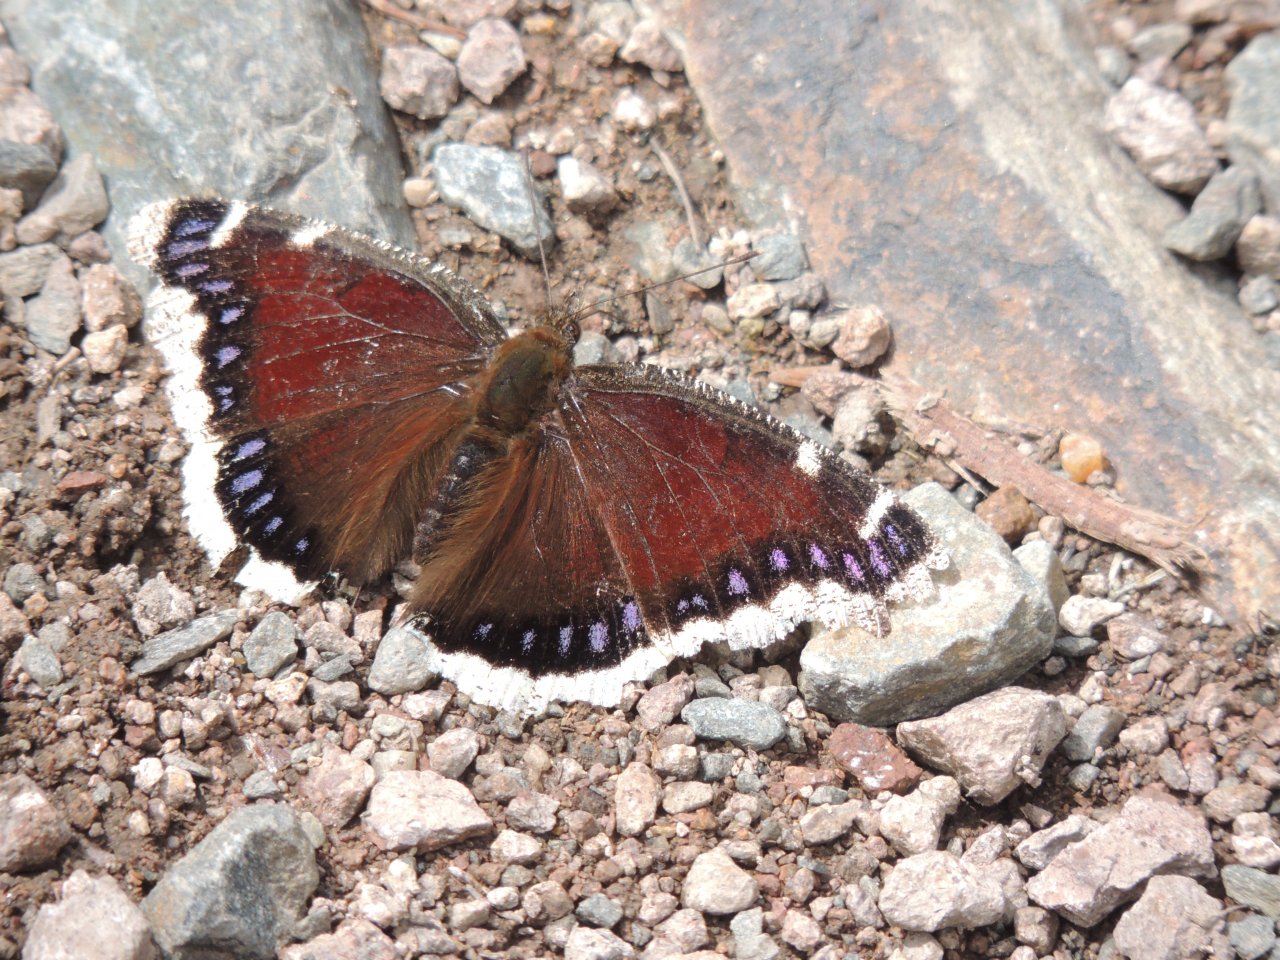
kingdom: Animalia
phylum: Arthropoda
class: Insecta
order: Lepidoptera
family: Nymphalidae
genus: Nymphalis
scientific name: Nymphalis antiopa
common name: Mourning Cloak
